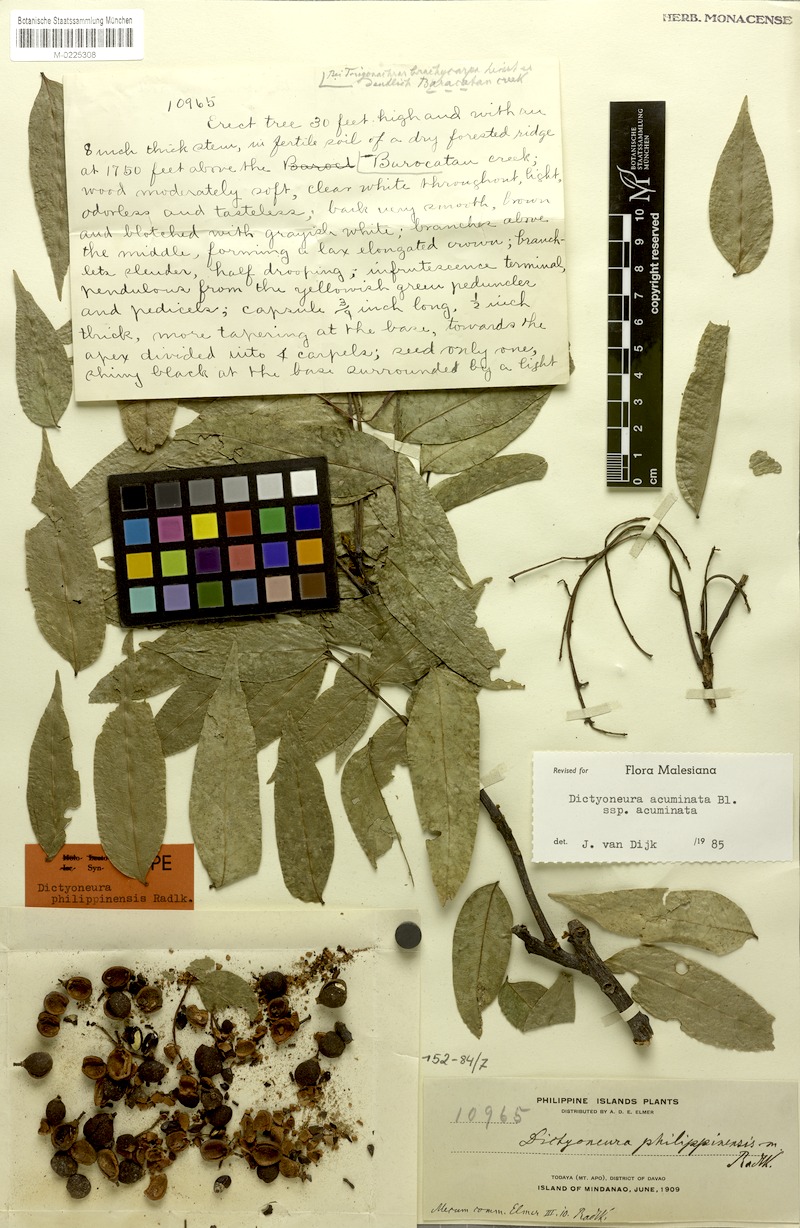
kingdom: Plantae
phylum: Tracheophyta
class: Magnoliopsida
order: Sapindales
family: Sapindaceae
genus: Dictyoneura
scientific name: Dictyoneura acuminata
